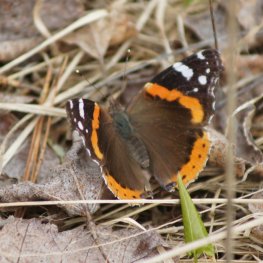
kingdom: Animalia
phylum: Arthropoda
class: Insecta
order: Lepidoptera
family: Nymphalidae
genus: Vanessa
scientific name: Vanessa atalanta
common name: Red Admiral
